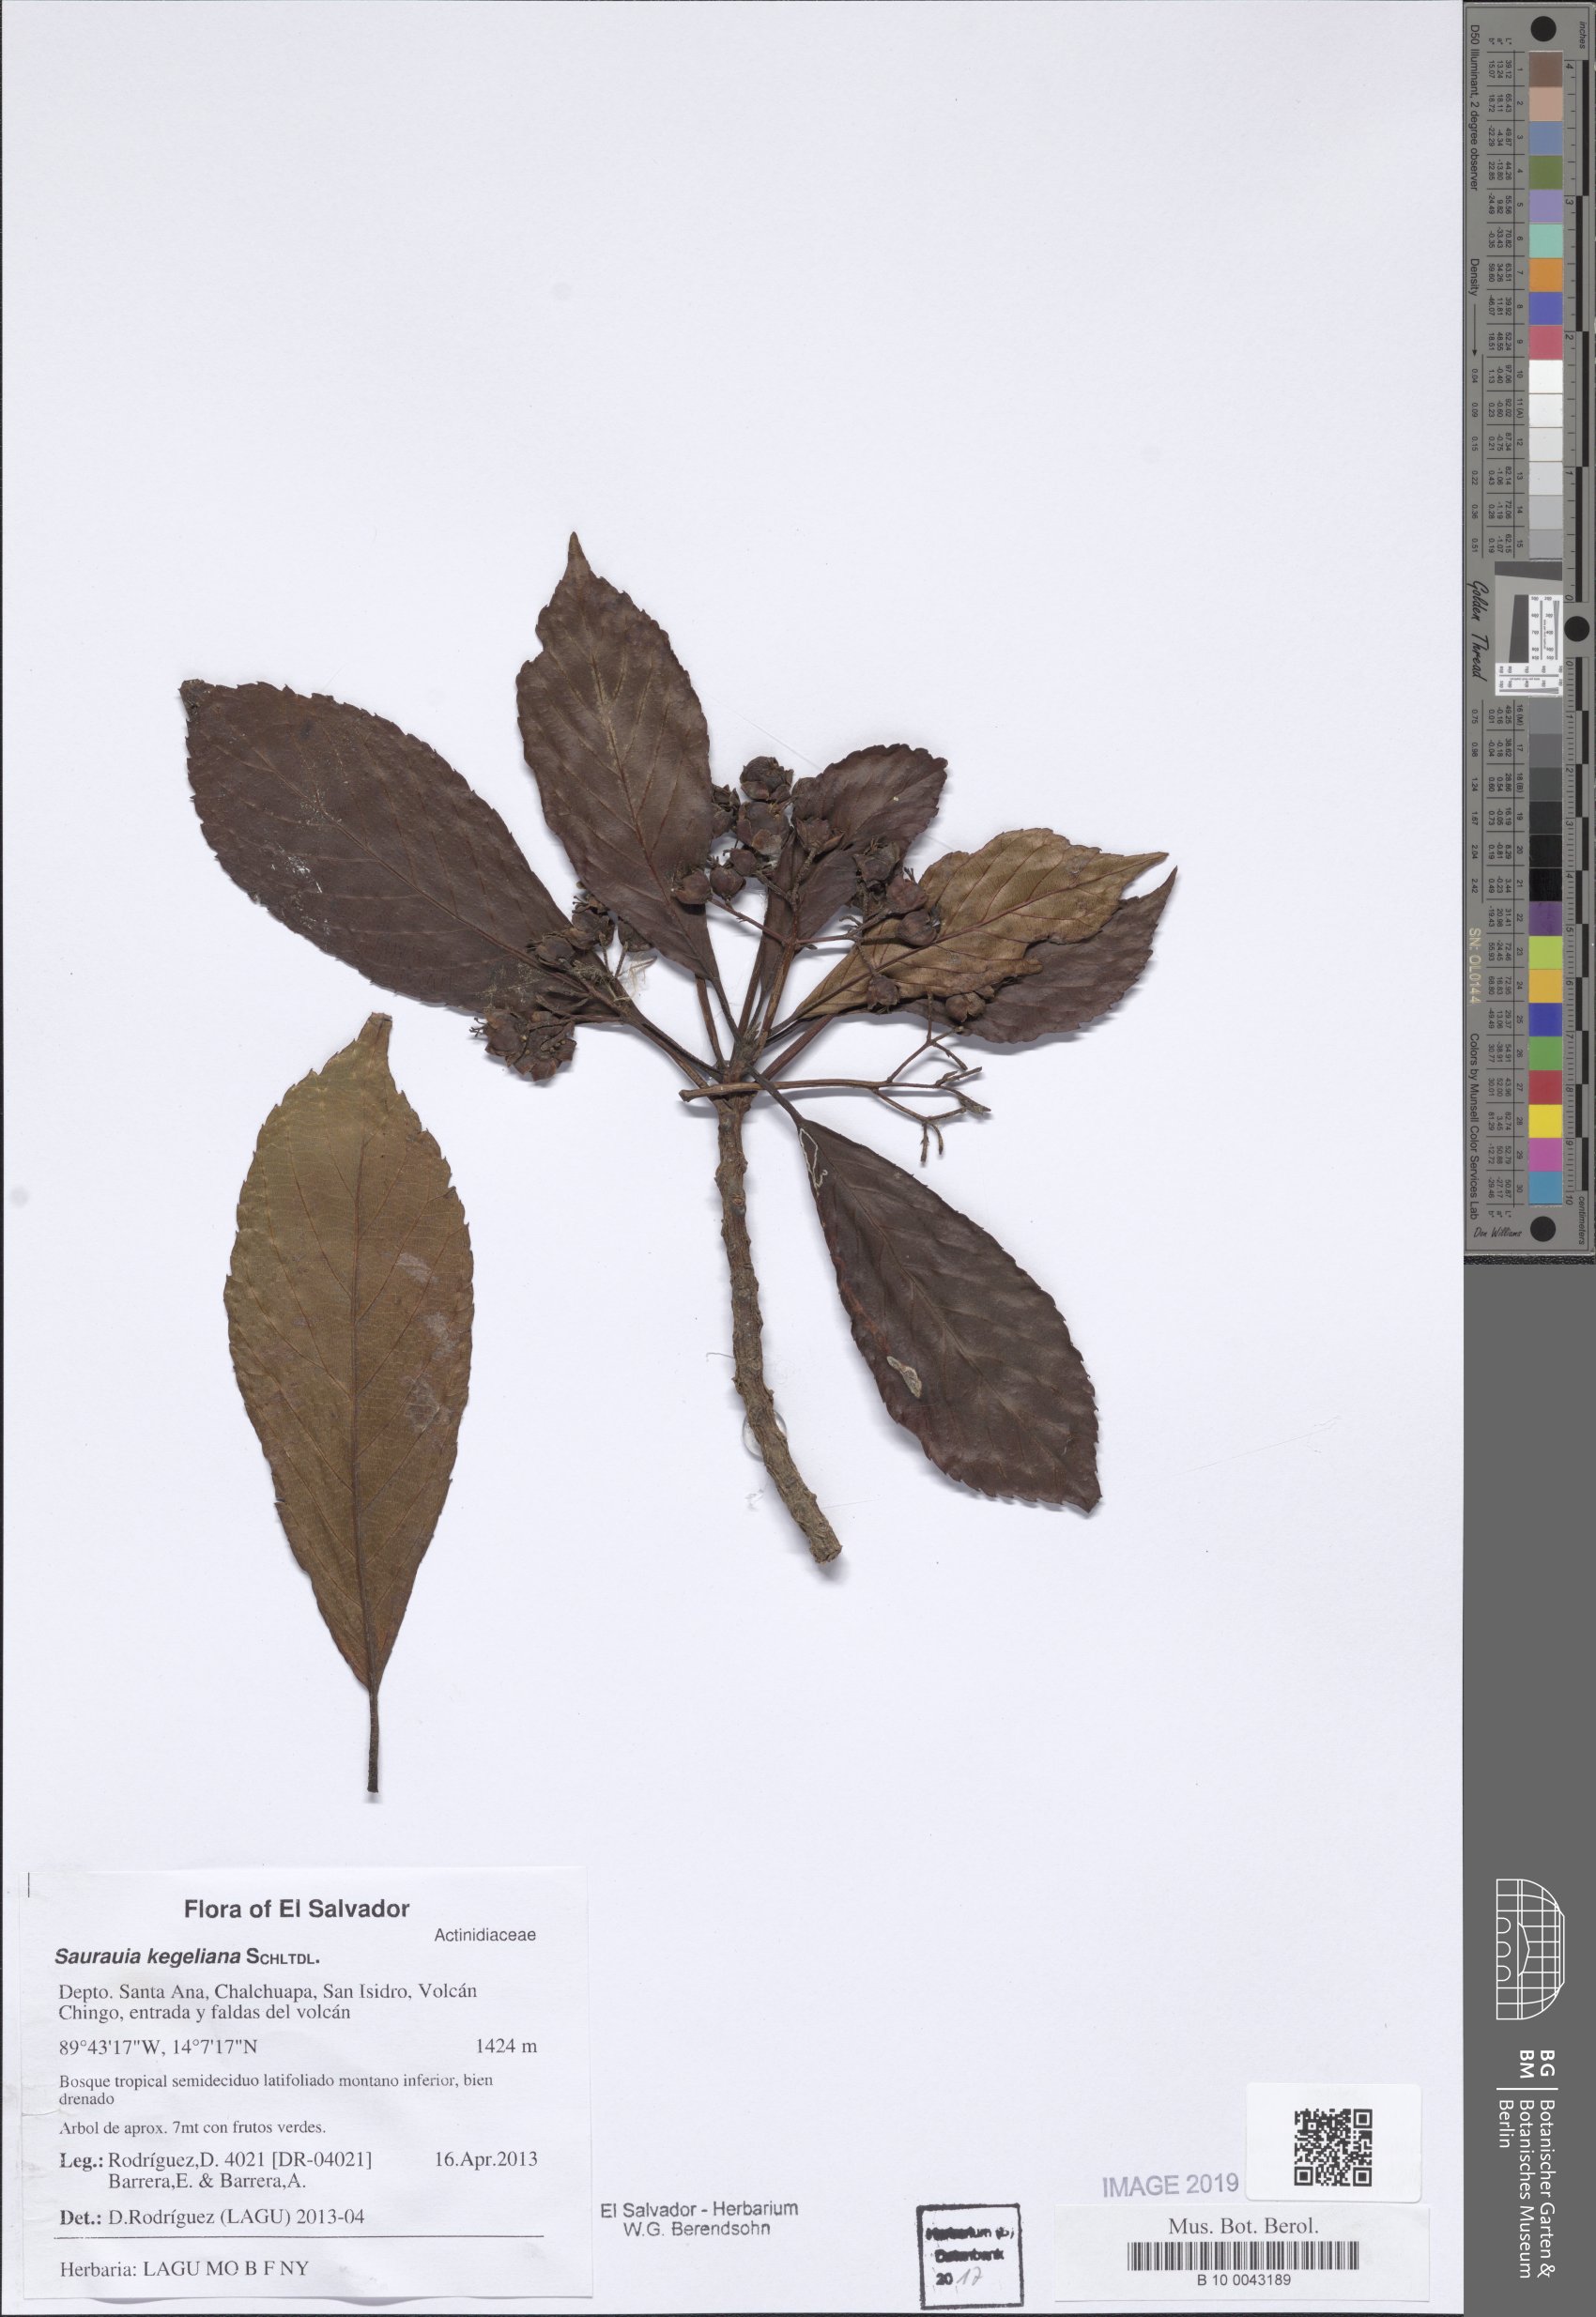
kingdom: Plantae
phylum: Tracheophyta
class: Magnoliopsida
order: Ericales
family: Actinidiaceae
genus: Saurauia
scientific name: Saurauia kegeliana
